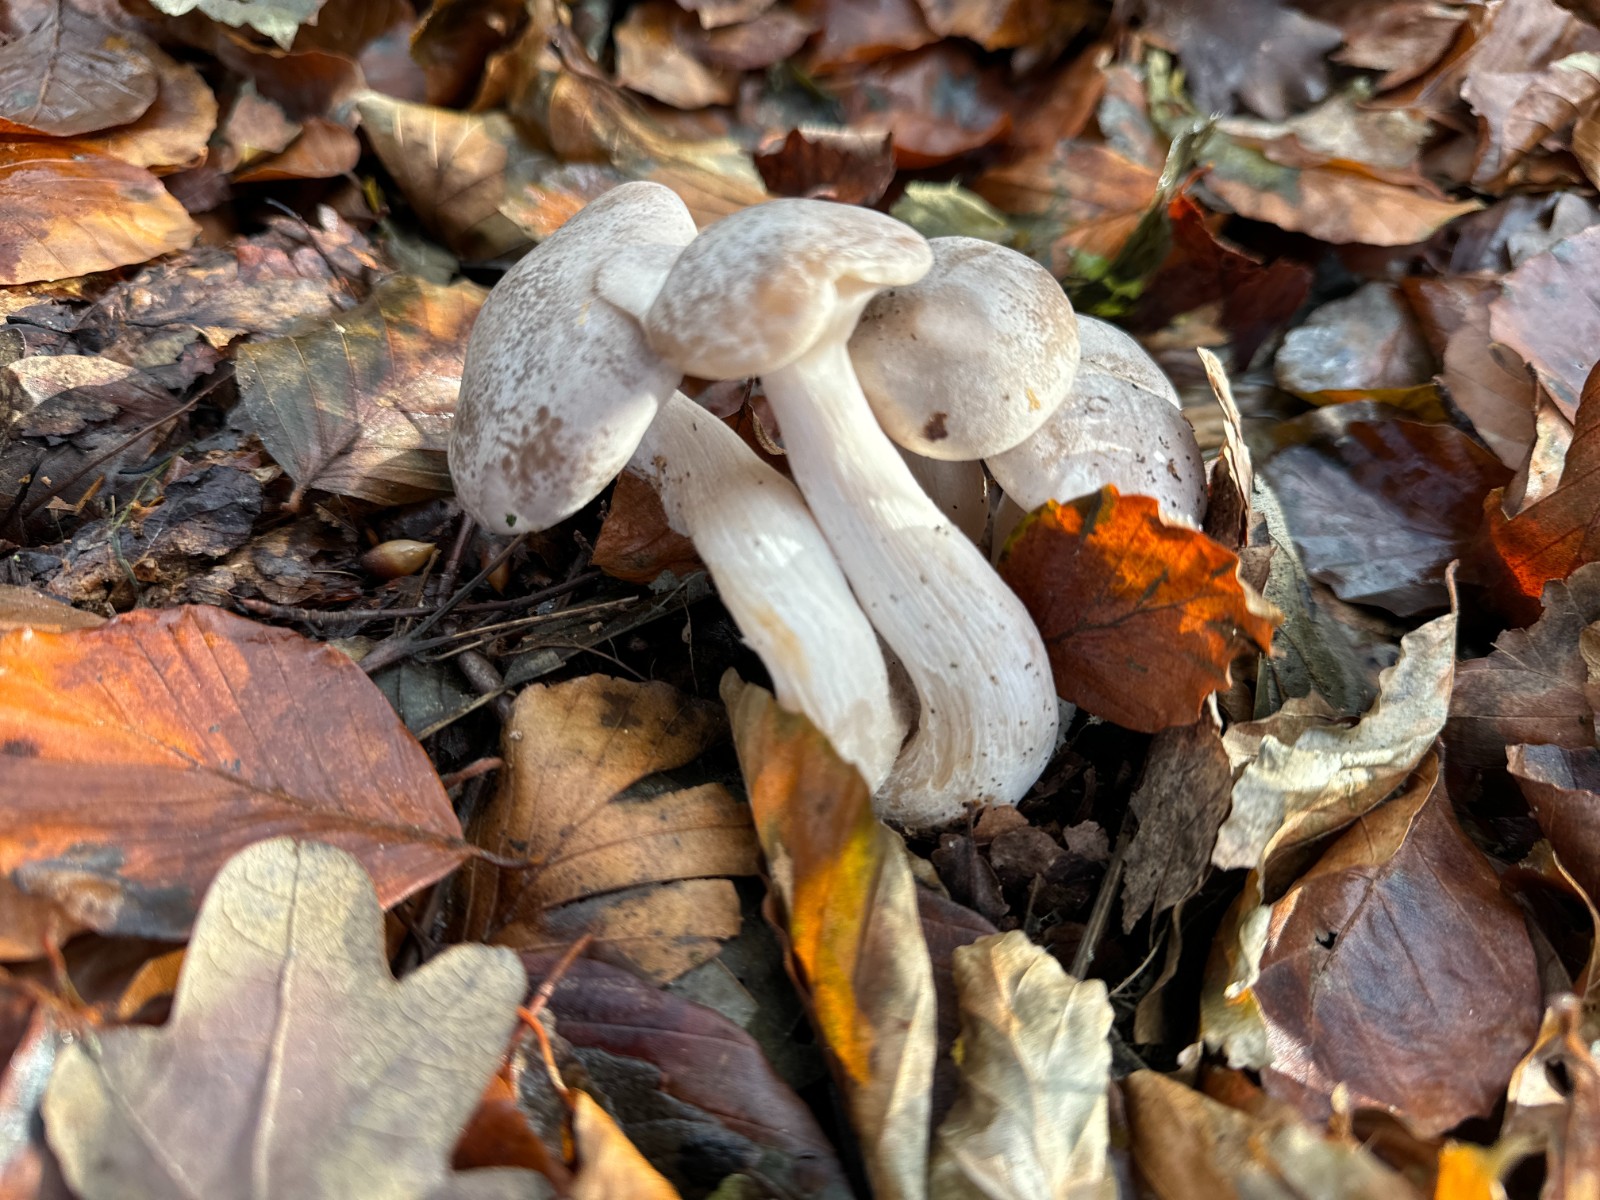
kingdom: Fungi
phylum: Basidiomycota
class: Agaricomycetes
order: Agaricales
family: Tricholomataceae
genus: Leucocybe
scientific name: Leucocybe connata
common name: knippe-tragthat
